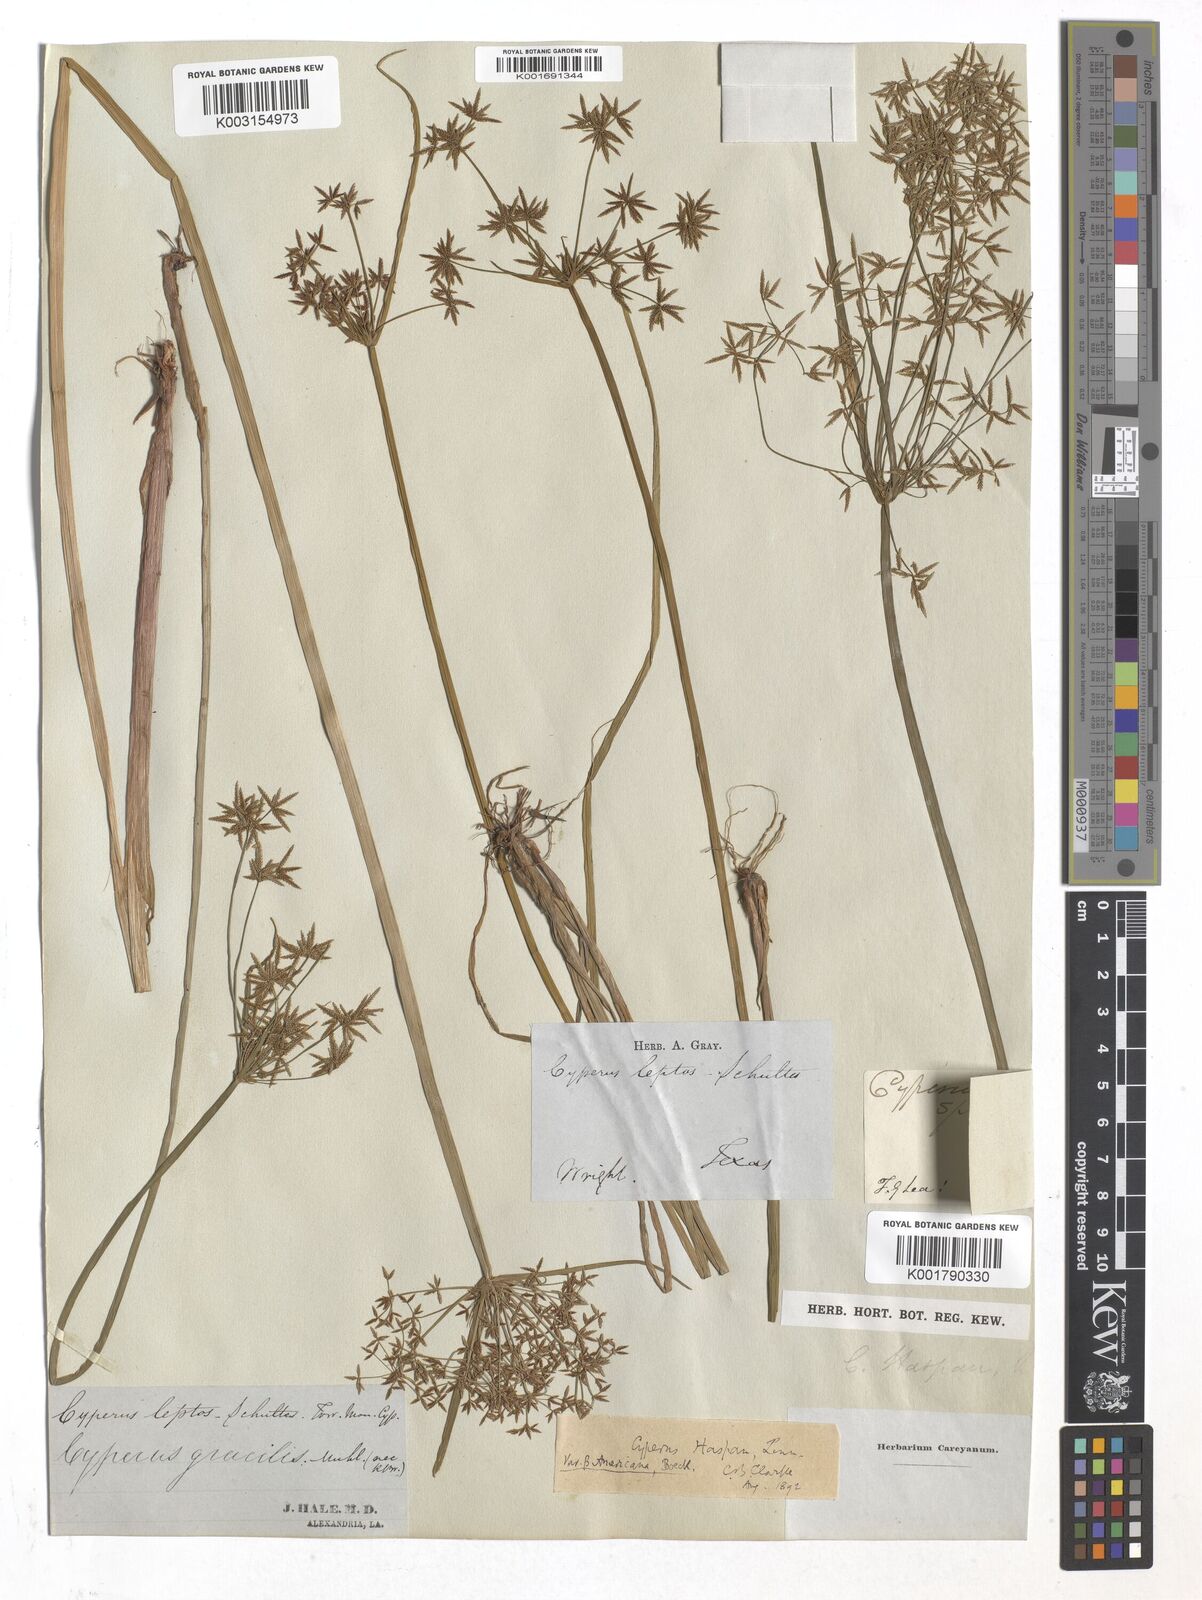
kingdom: Plantae
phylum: Tracheophyta
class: Liliopsida
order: Poales
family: Cyperaceae
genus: Cyperus
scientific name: Cyperus haspan
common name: Haspan flatsedge
